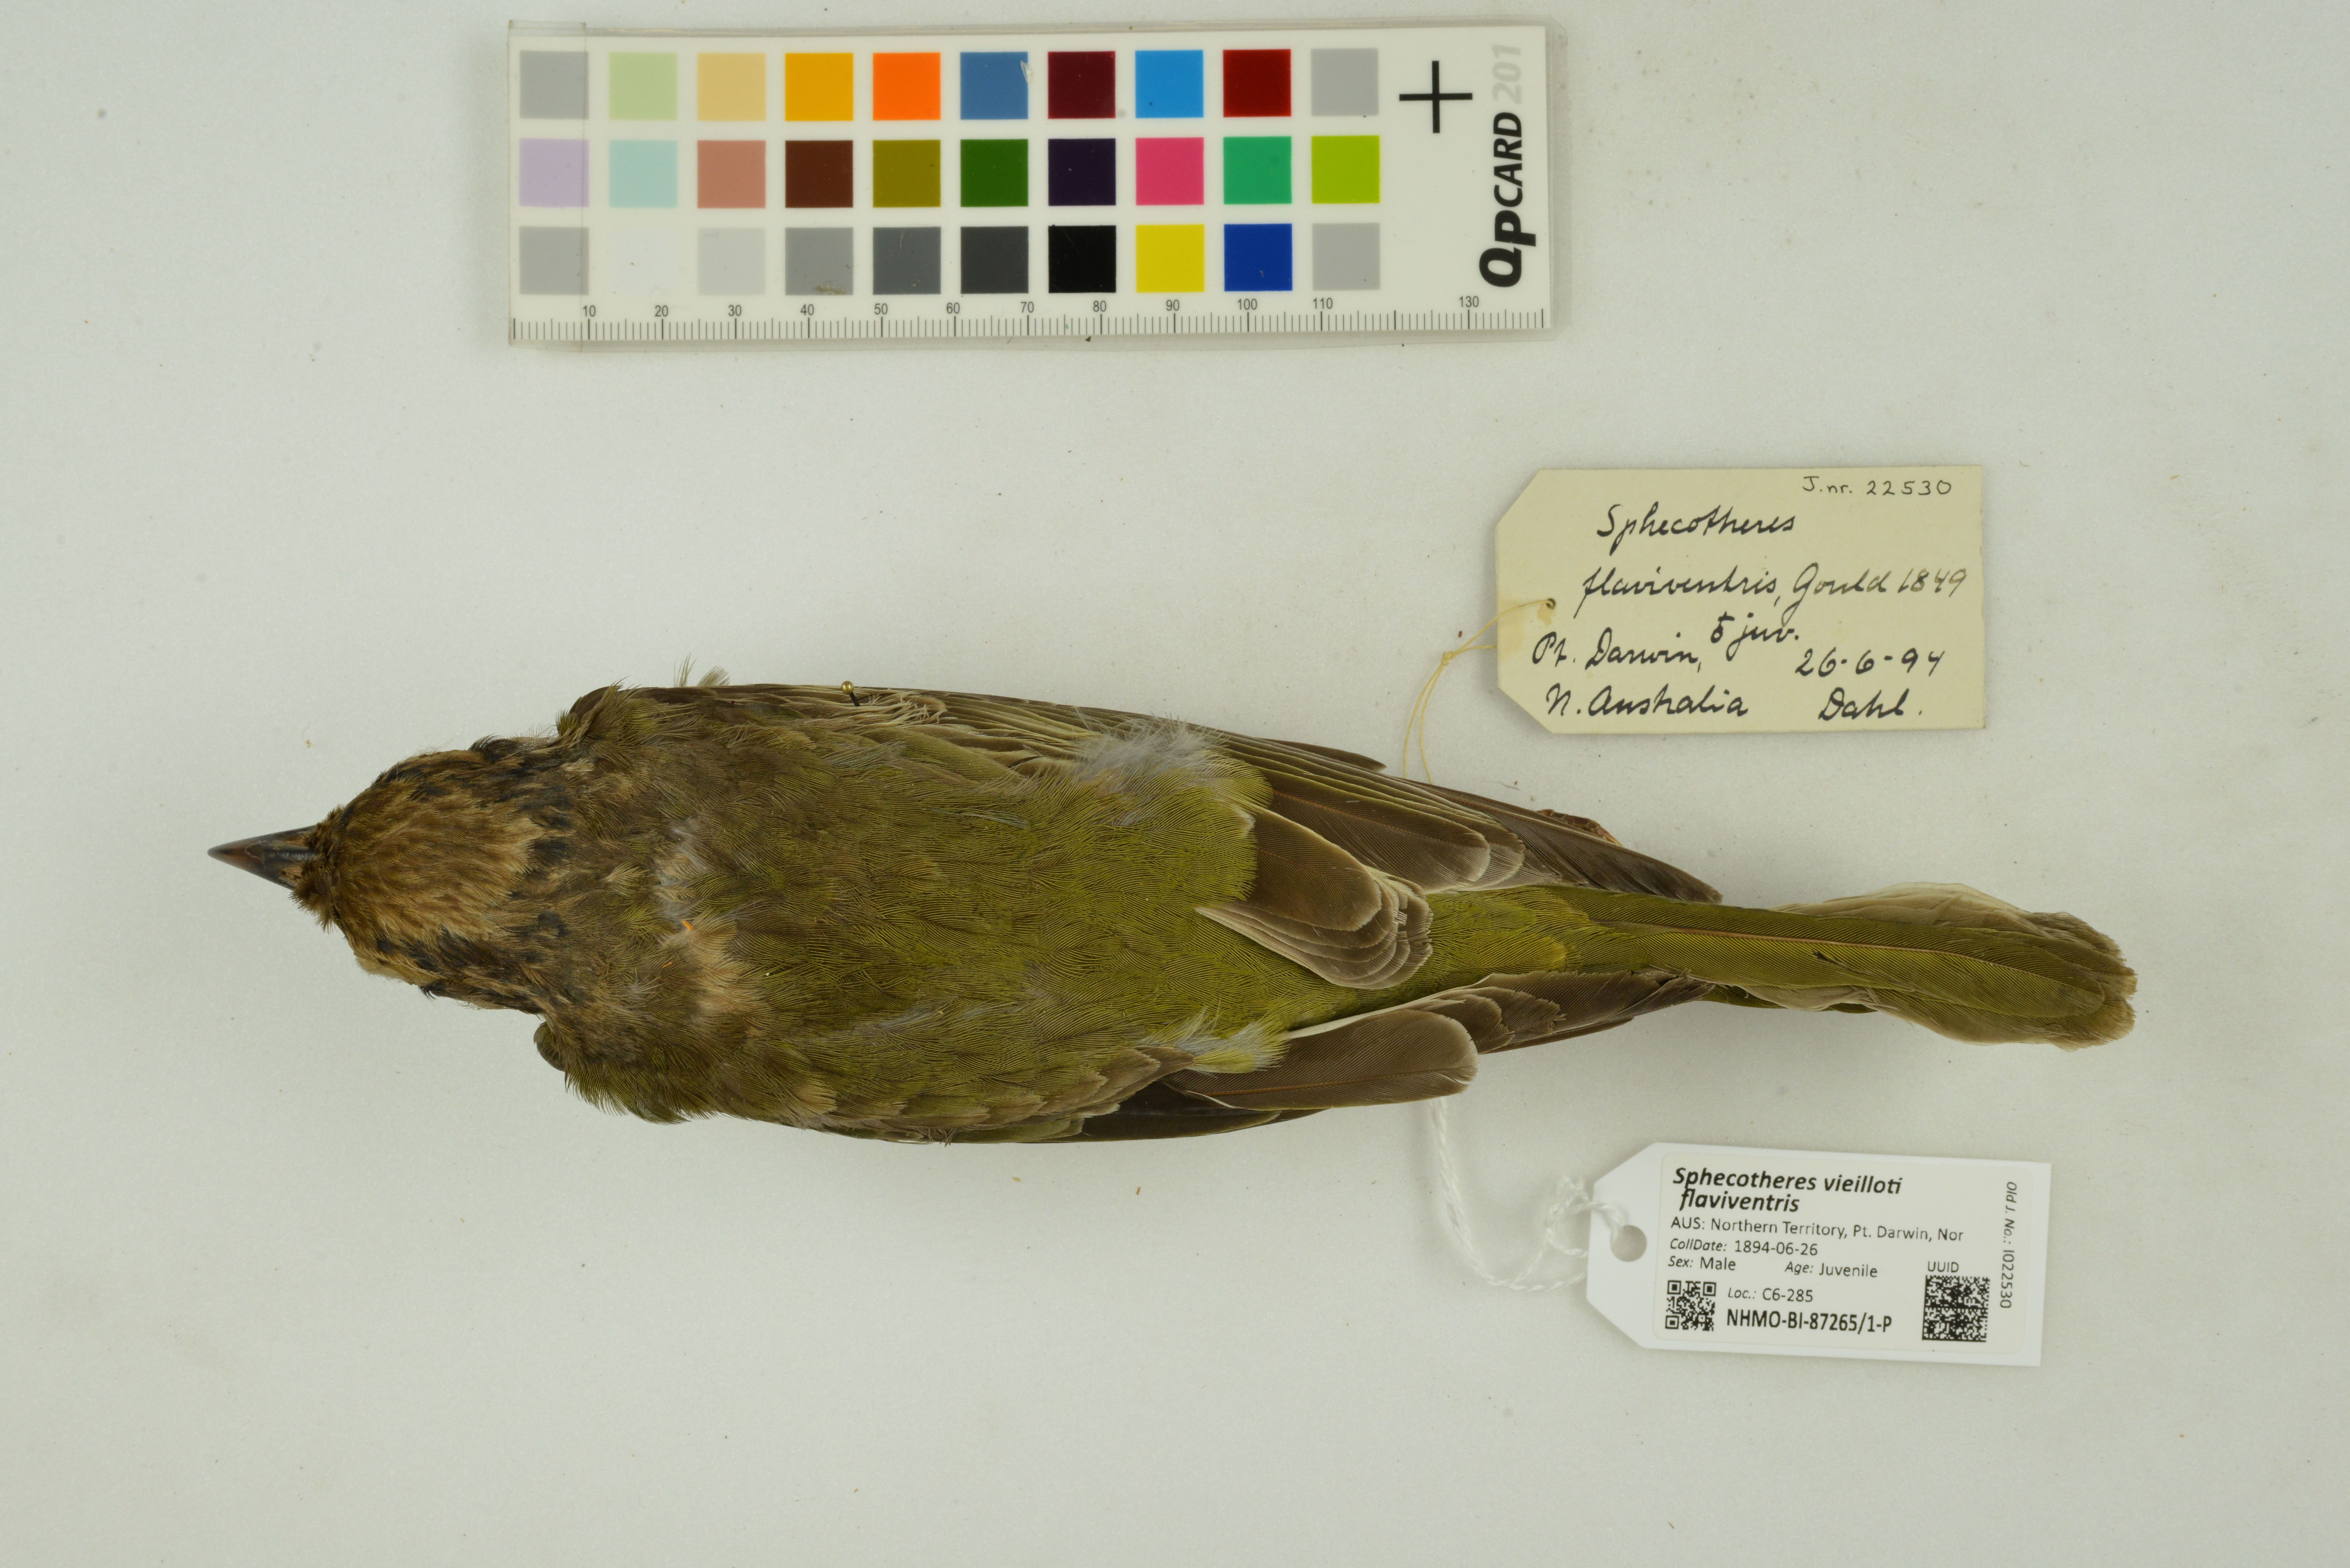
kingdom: Animalia
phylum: Chordata
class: Aves
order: Passeriformes
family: Oriolidae
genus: Sphecotheres
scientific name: Sphecotheres vieilloti
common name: Australasian figbird
